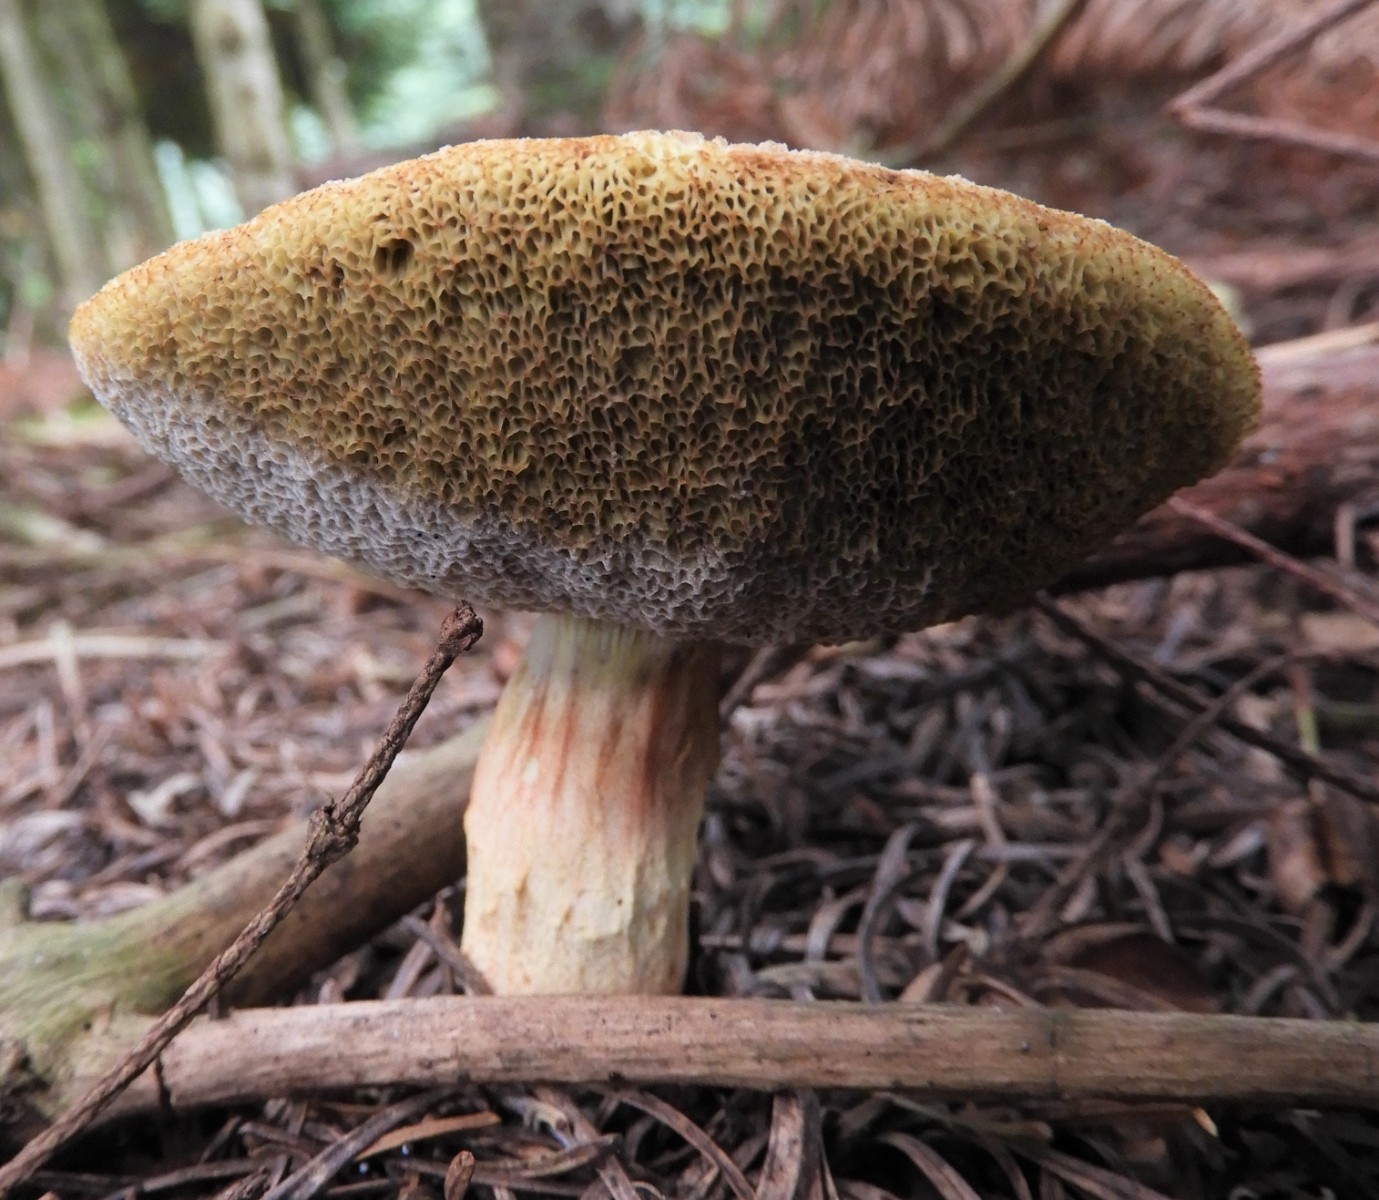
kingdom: Fungi
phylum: Basidiomycota
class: Agaricomycetes
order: Boletales
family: Boletaceae
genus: Xerocomellus
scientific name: Xerocomellus porosporus
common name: hvidsprukken rørhat
